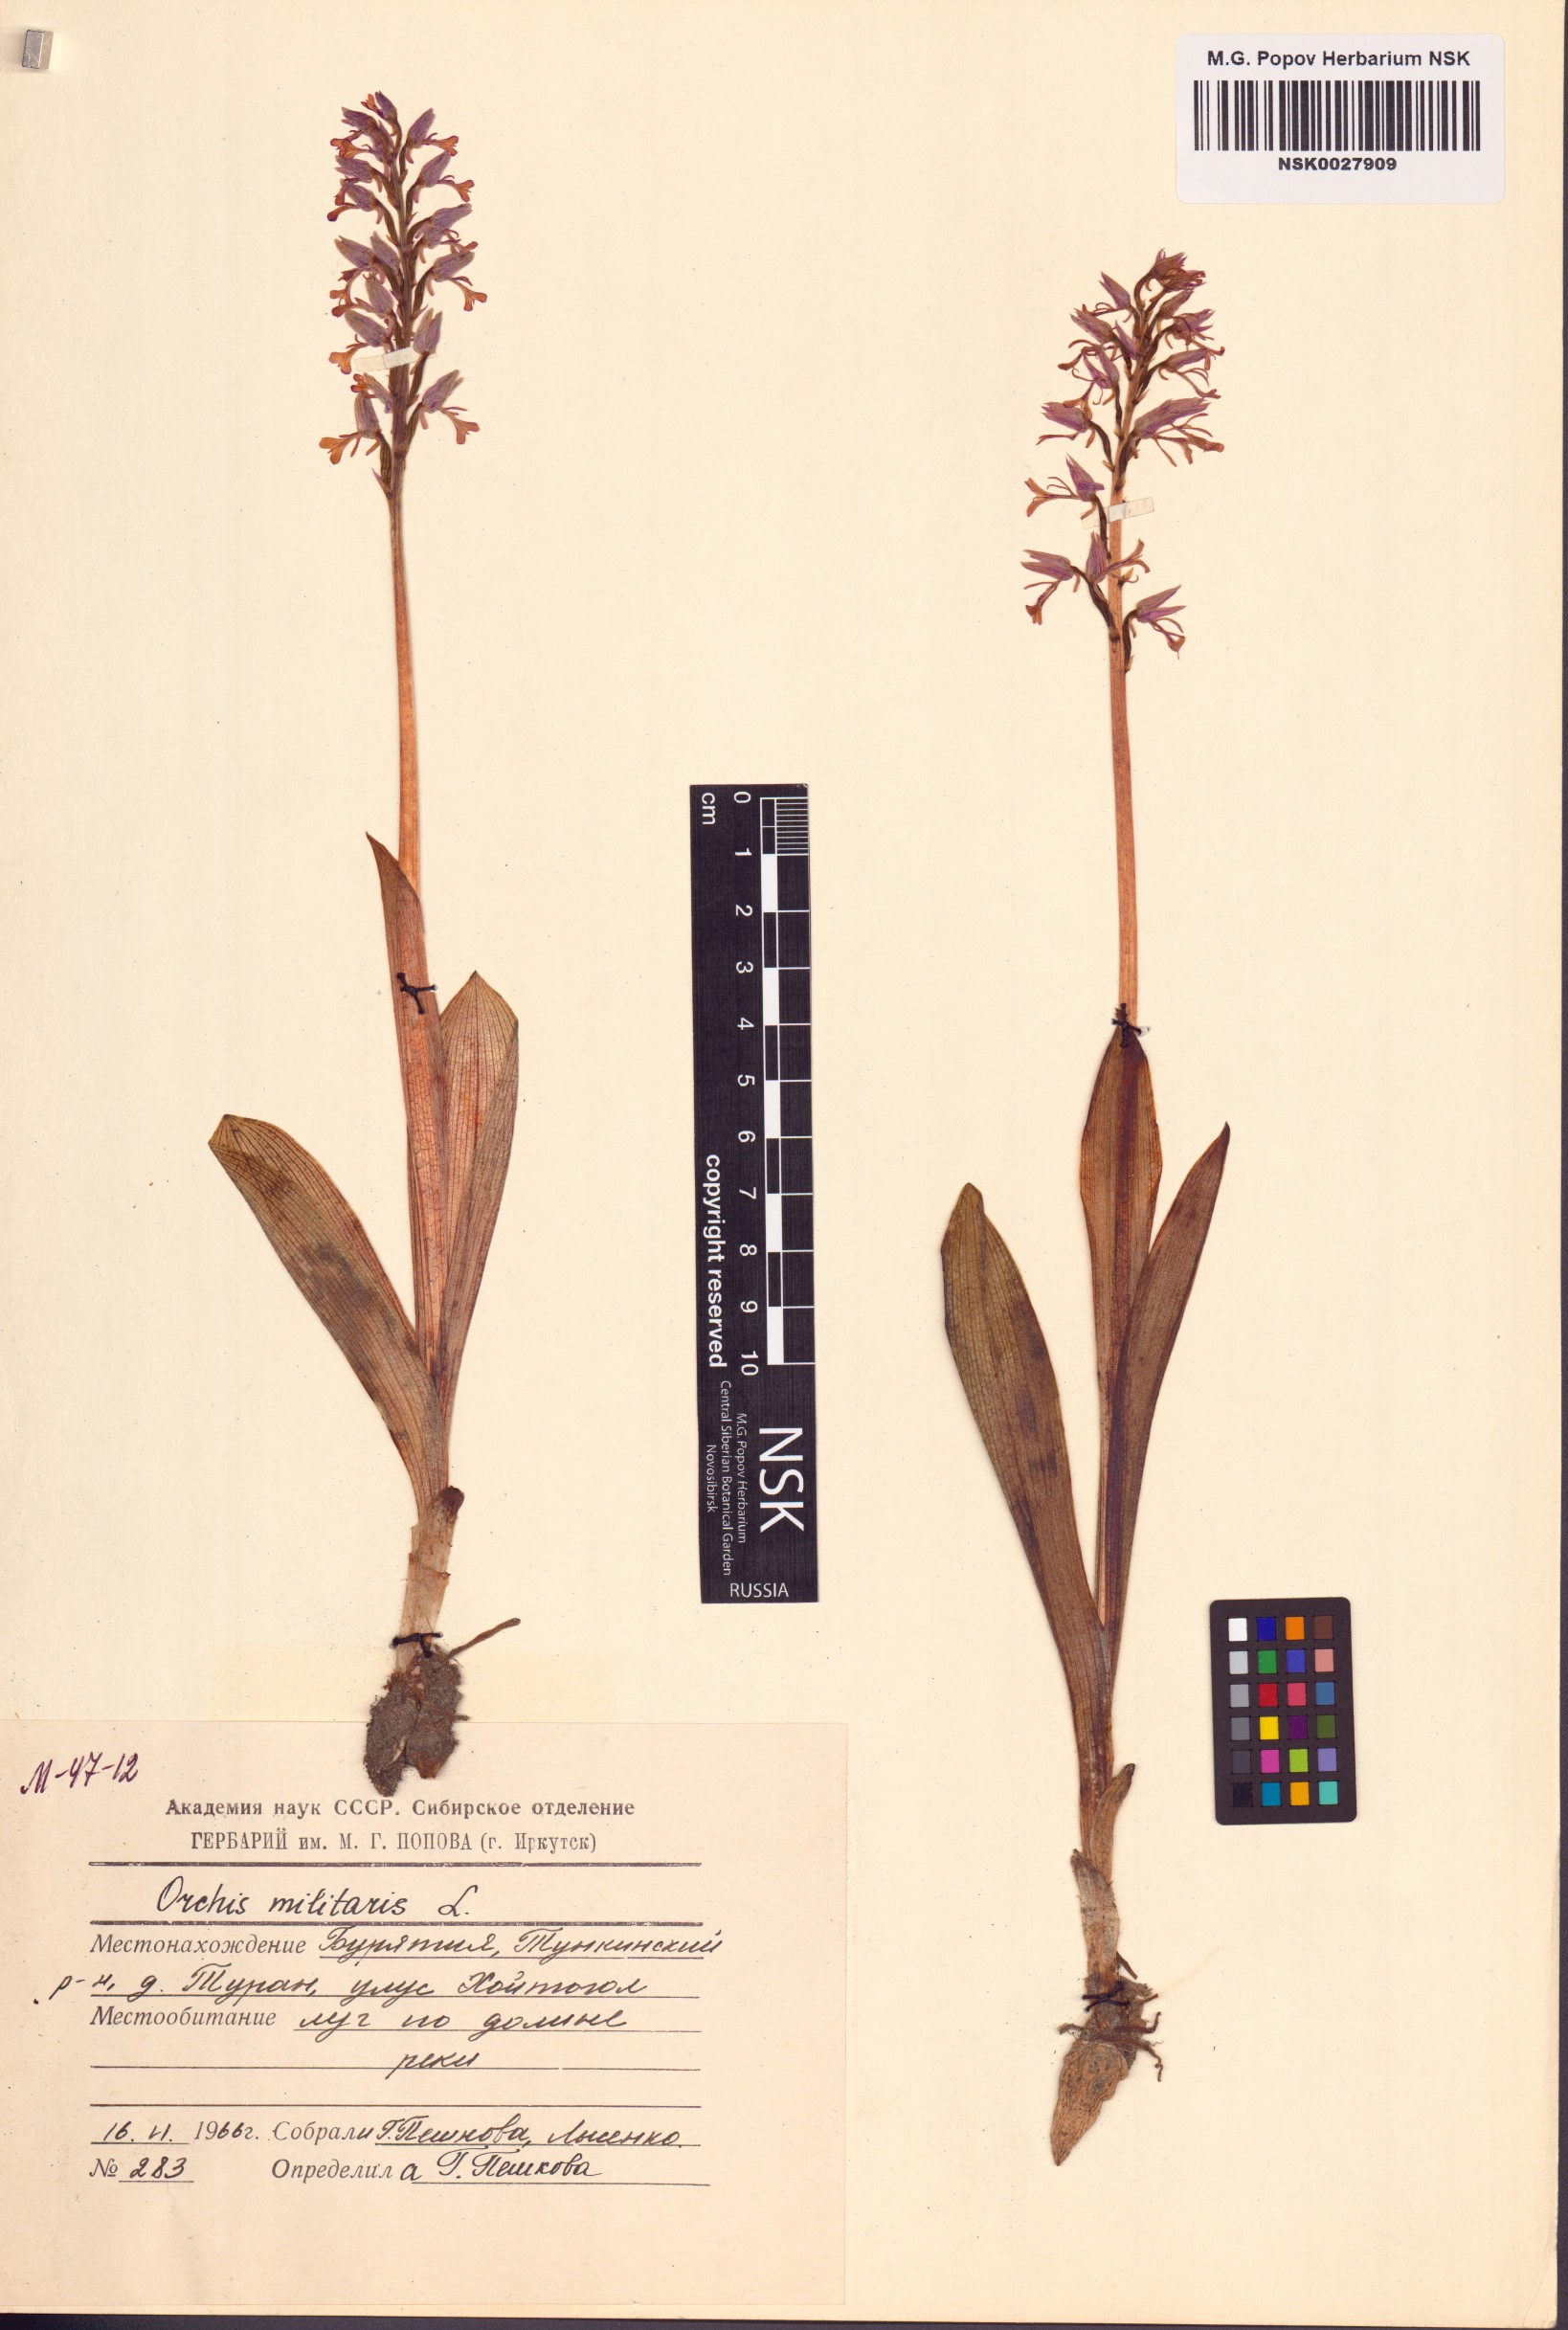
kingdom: Plantae
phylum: Tracheophyta
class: Liliopsida
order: Asparagales
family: Orchidaceae
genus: Orchis
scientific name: Orchis militaris
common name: Military orchid
